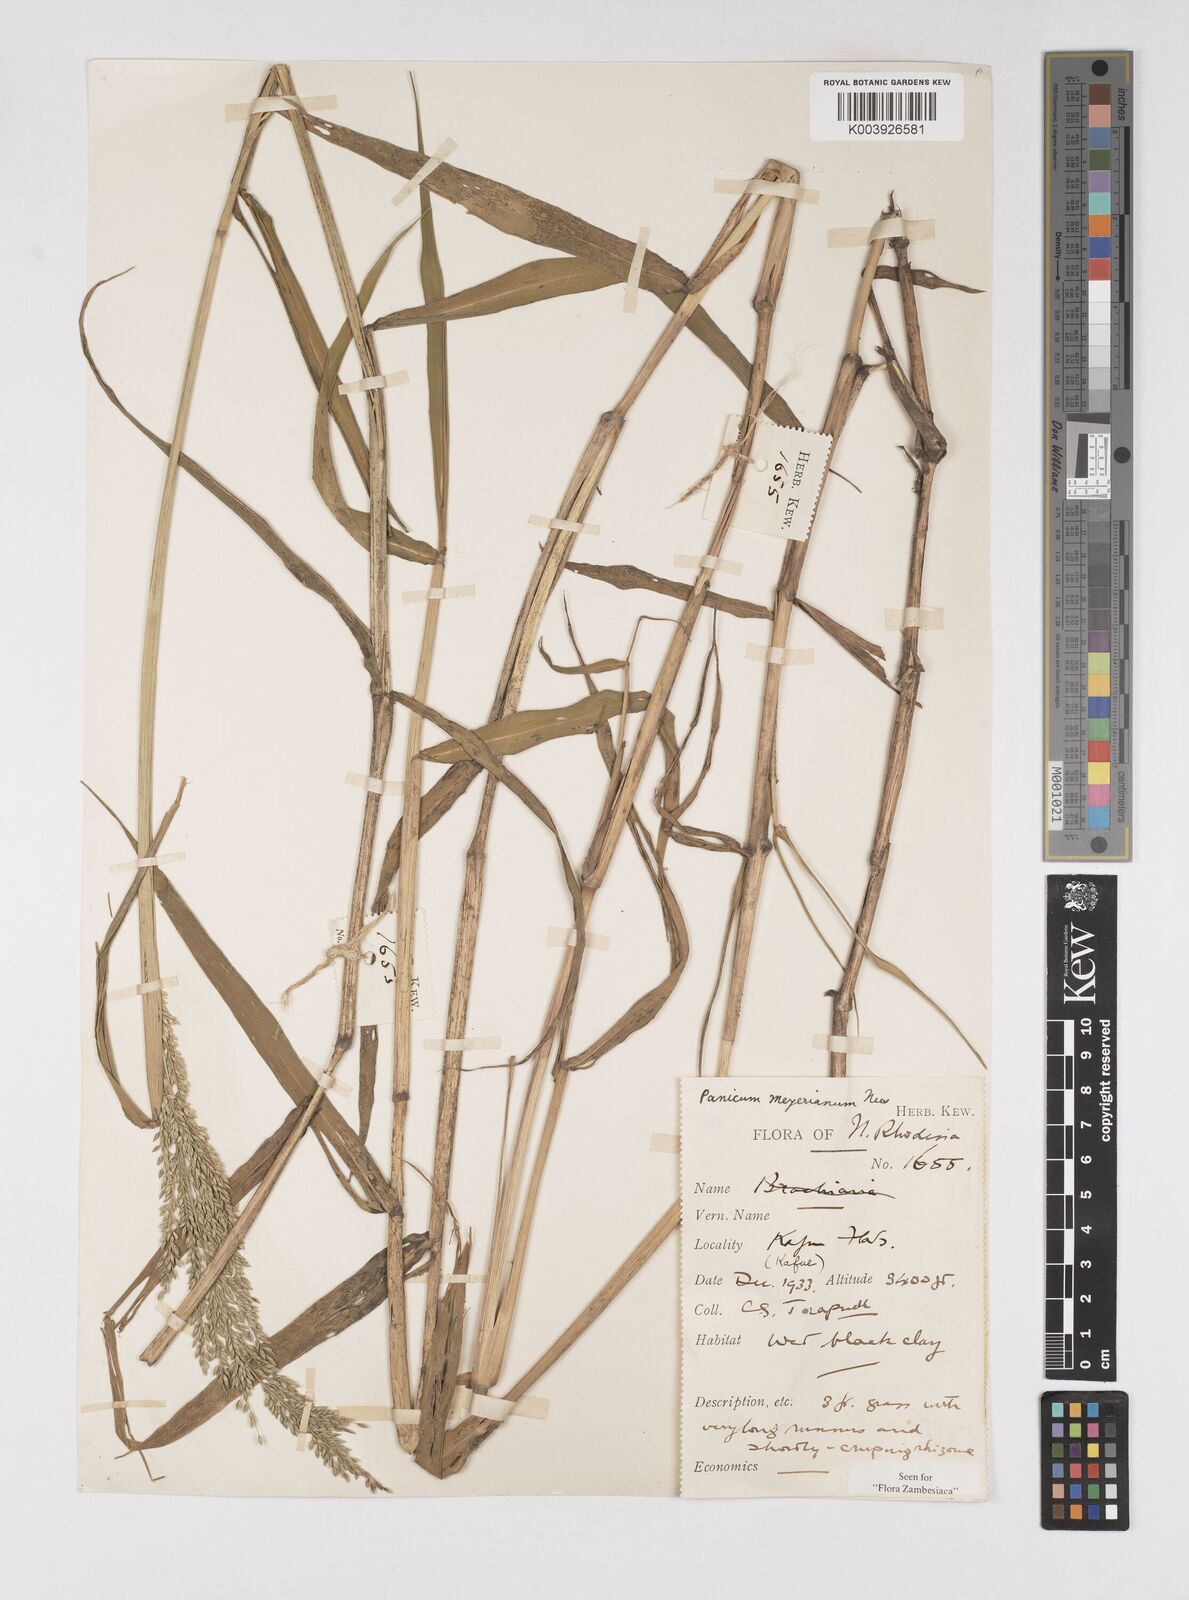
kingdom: Plantae
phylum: Tracheophyta
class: Liliopsida
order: Poales
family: Poaceae
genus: Eriochloa
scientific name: Eriochloa meyeriana
